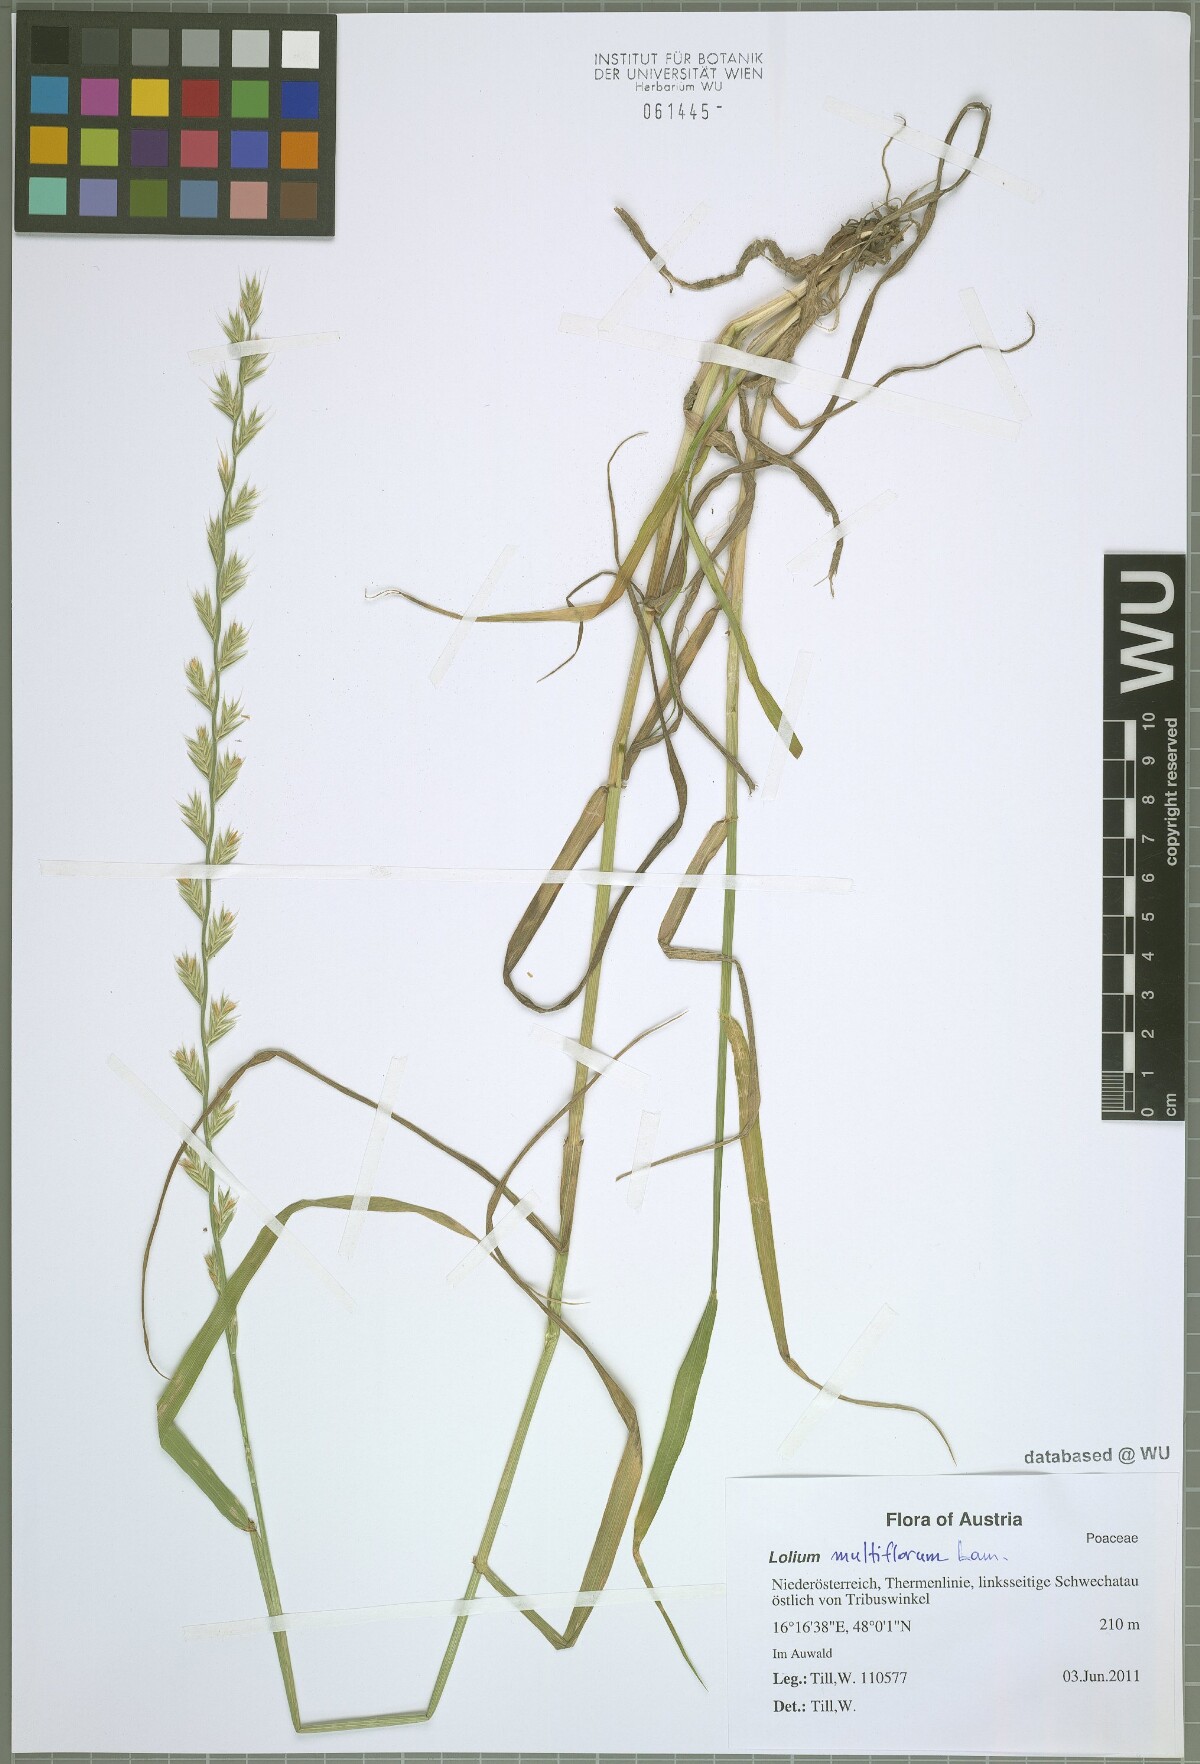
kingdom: Plantae
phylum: Tracheophyta
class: Liliopsida
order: Poales
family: Poaceae
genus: Lolium
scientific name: Lolium multiflorum
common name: Annual ryegrass
